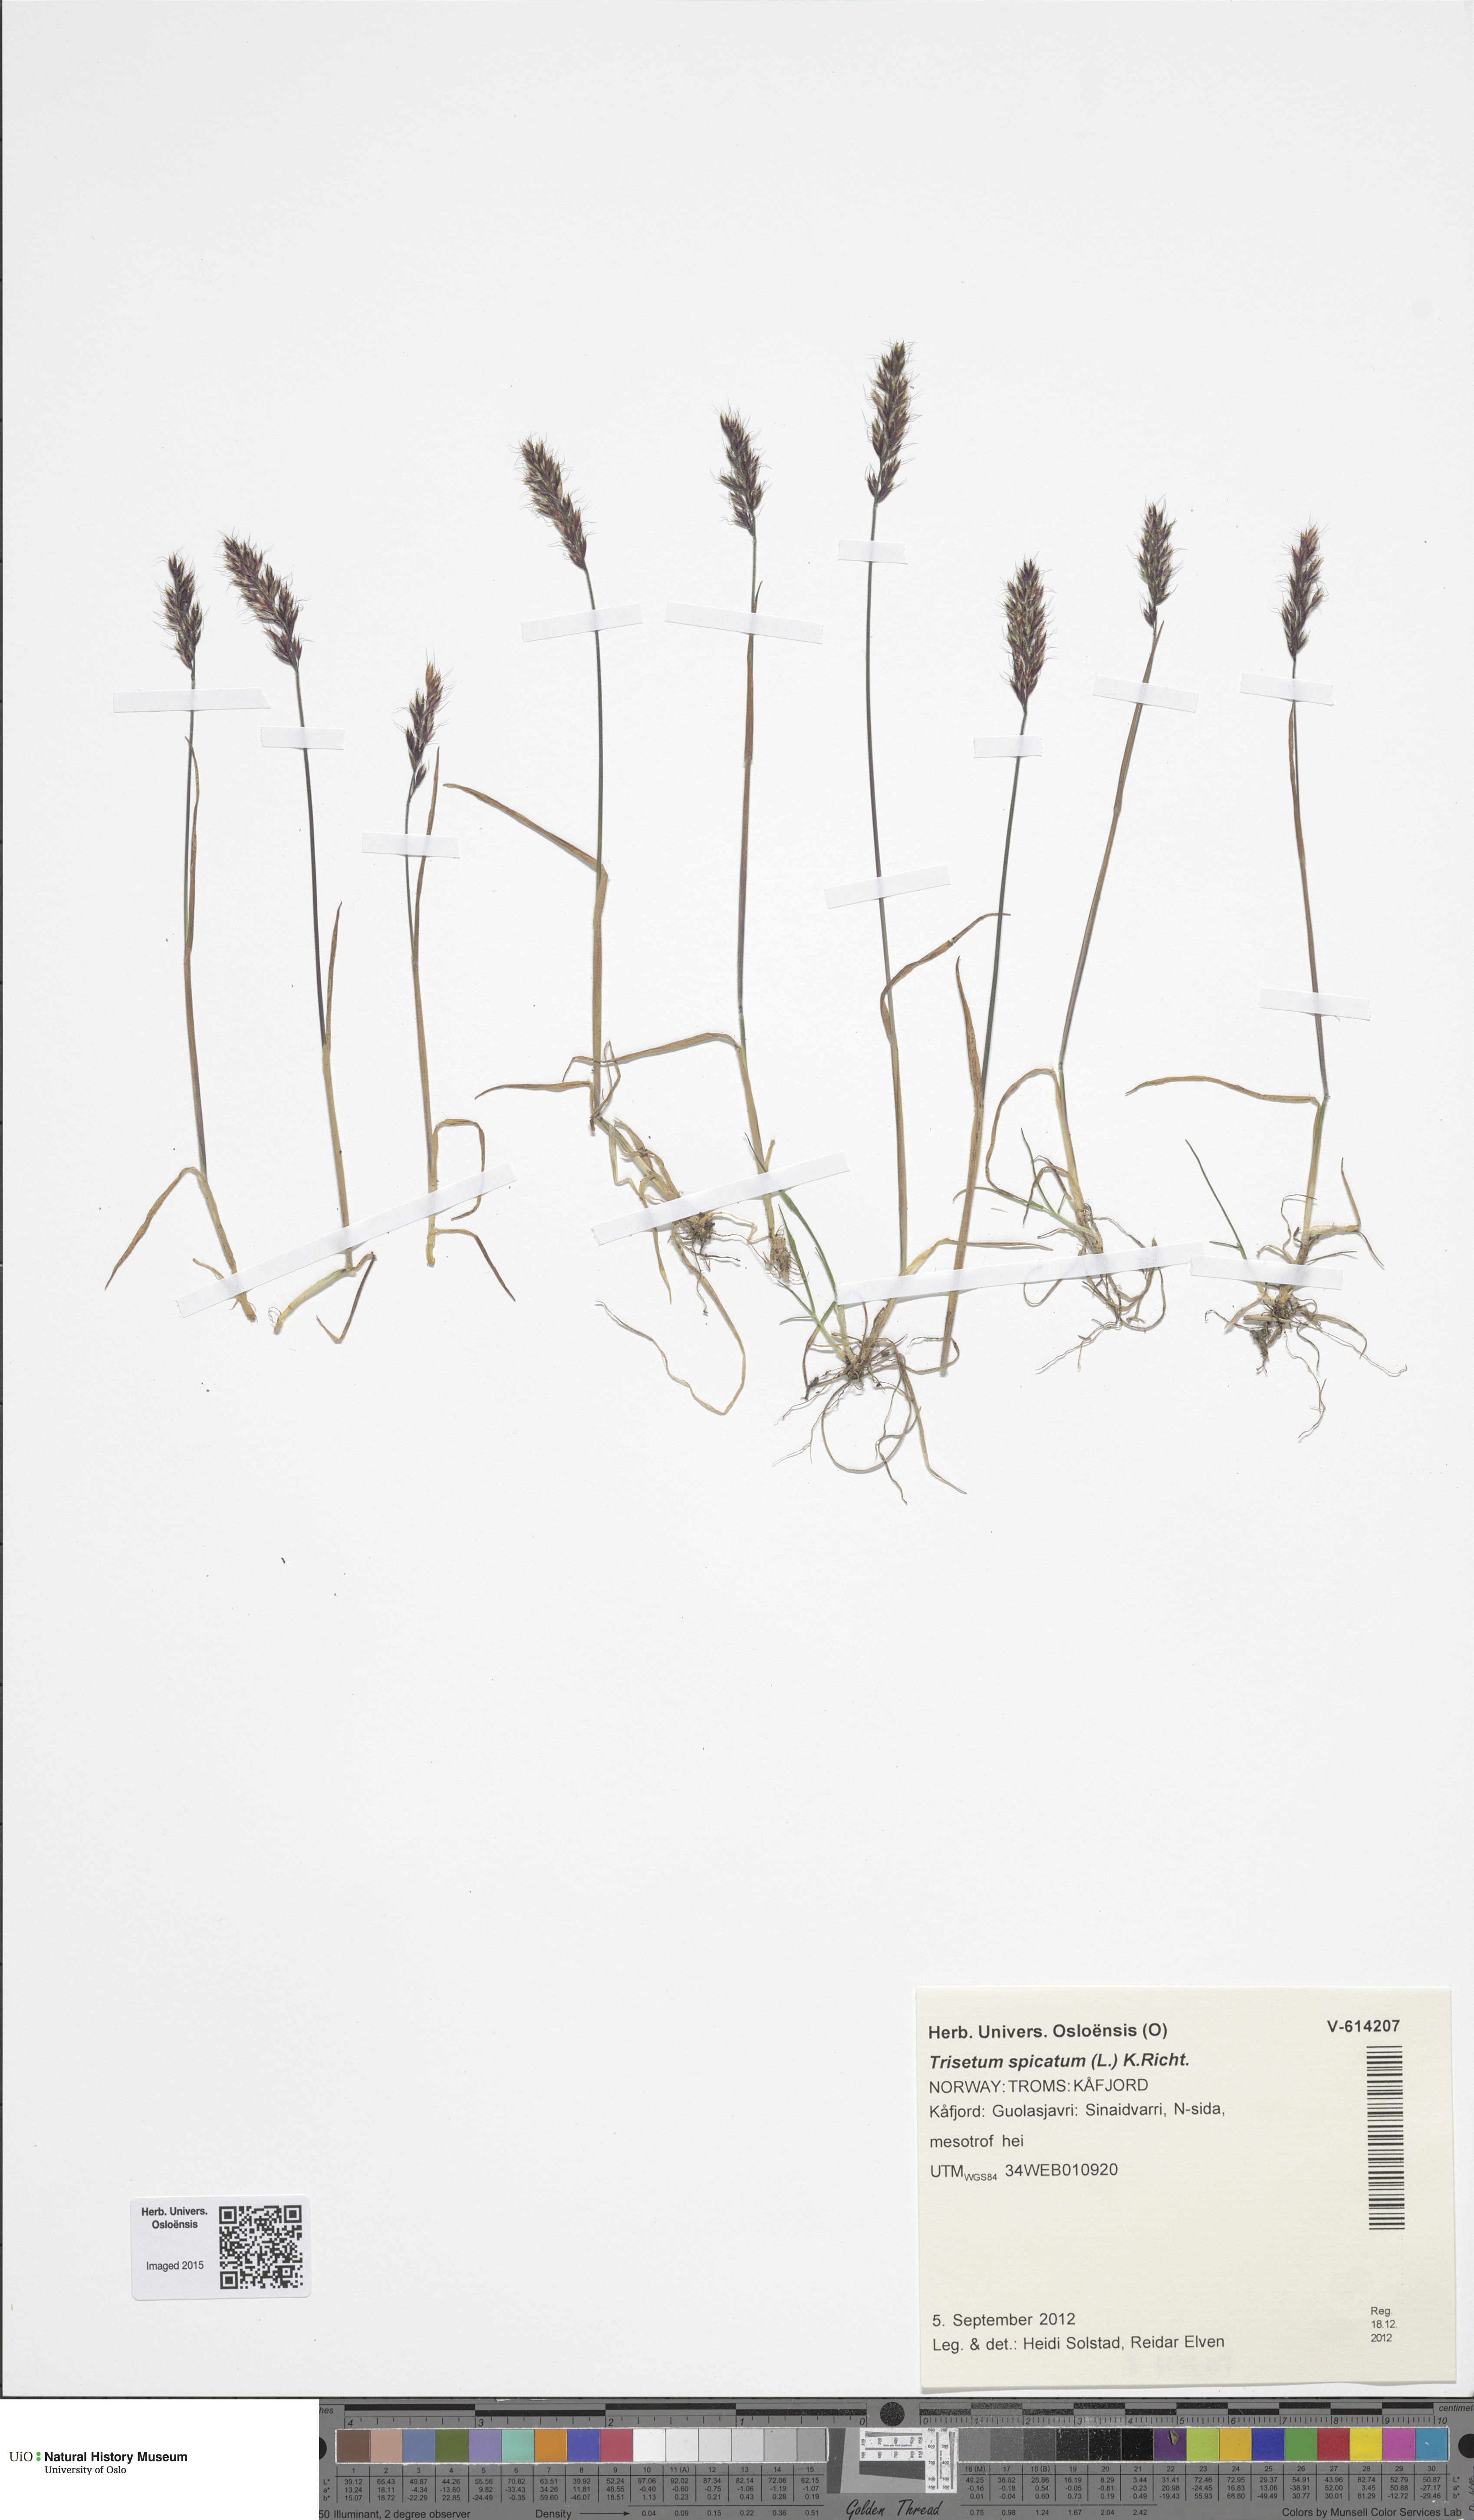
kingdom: Plantae
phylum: Tracheophyta
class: Liliopsida
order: Poales
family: Poaceae
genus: Koeleria
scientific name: Koeleria spicata
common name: Mountain trisetum
